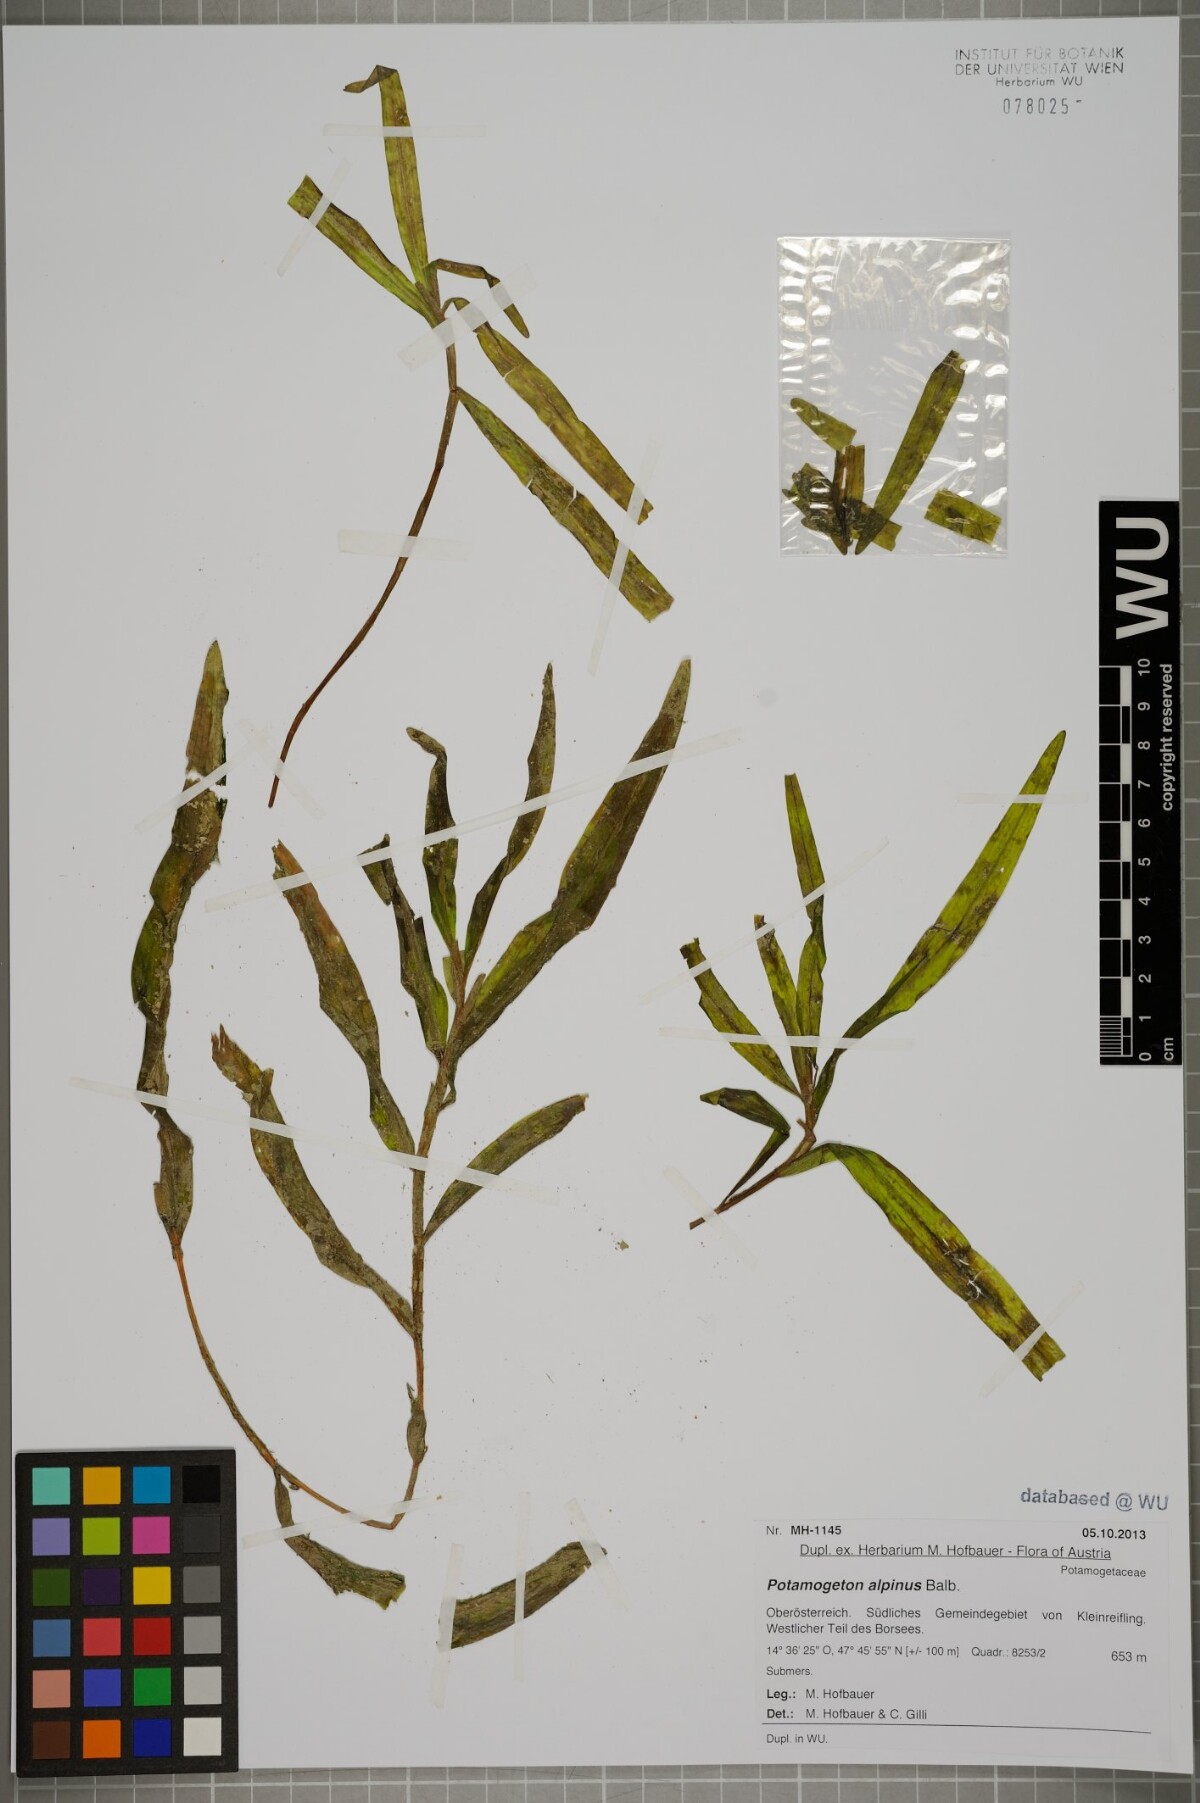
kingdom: Plantae
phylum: Tracheophyta
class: Liliopsida
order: Alismatales
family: Potamogetonaceae
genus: Potamogeton
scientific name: Potamogeton alpinus
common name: Red pondweed
